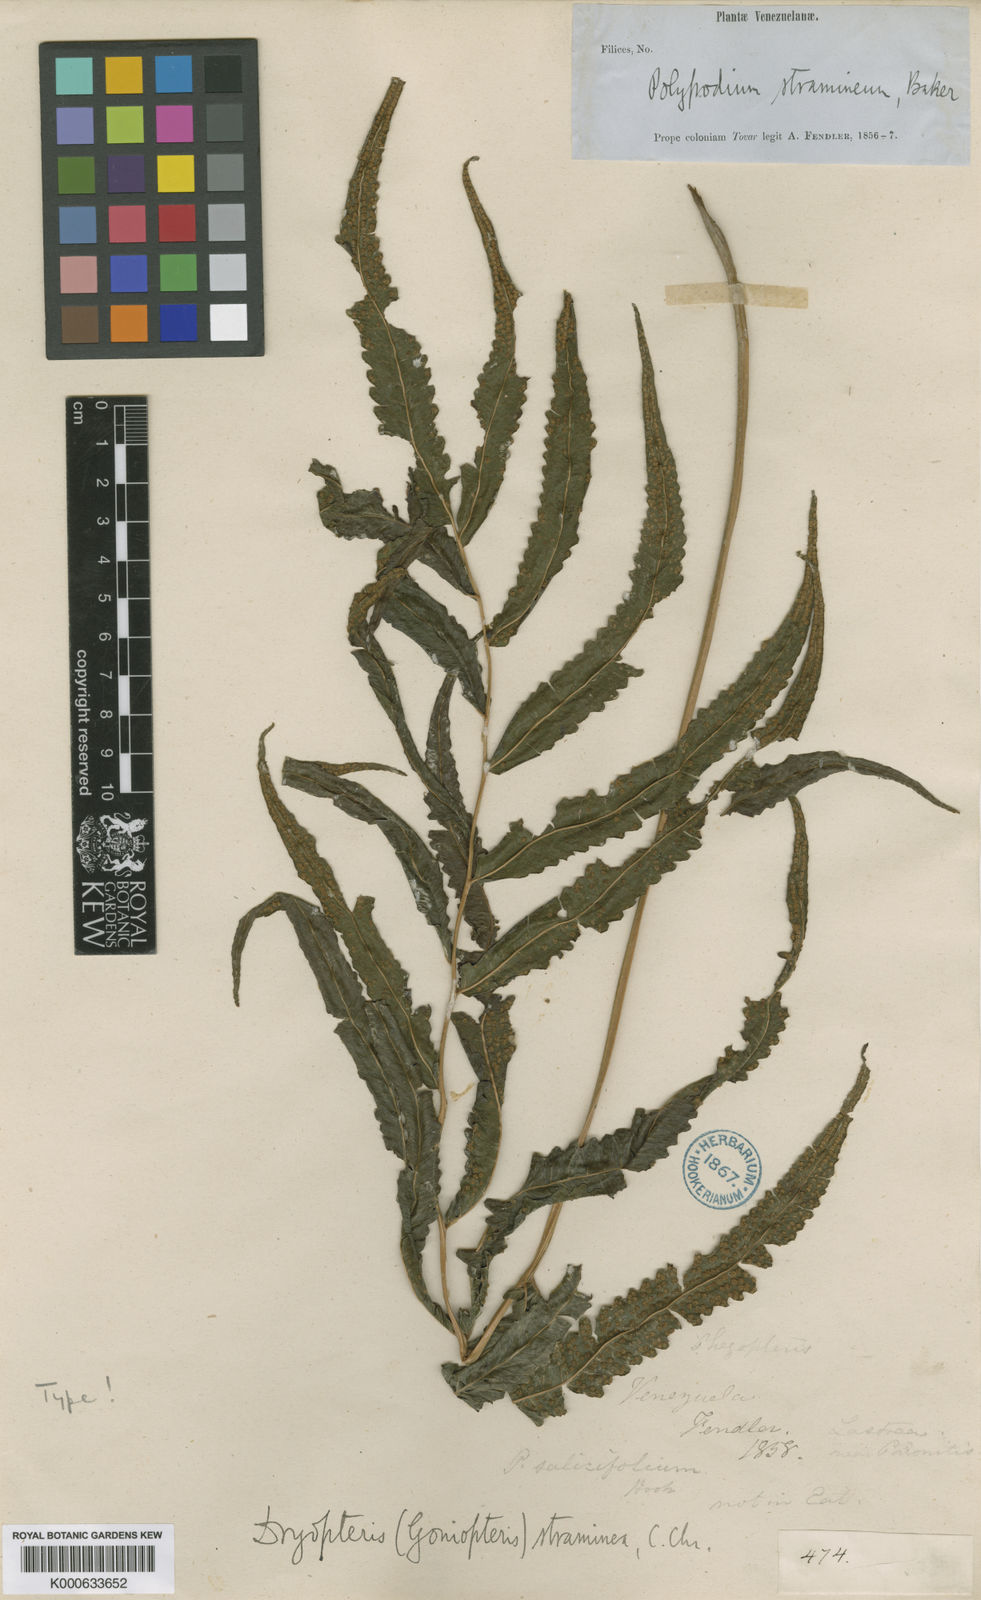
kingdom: Plantae
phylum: Tracheophyta
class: Polypodiopsida
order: Polypodiales
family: Thelypteridaceae
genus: Goniopteris
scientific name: Goniopteris straminea
